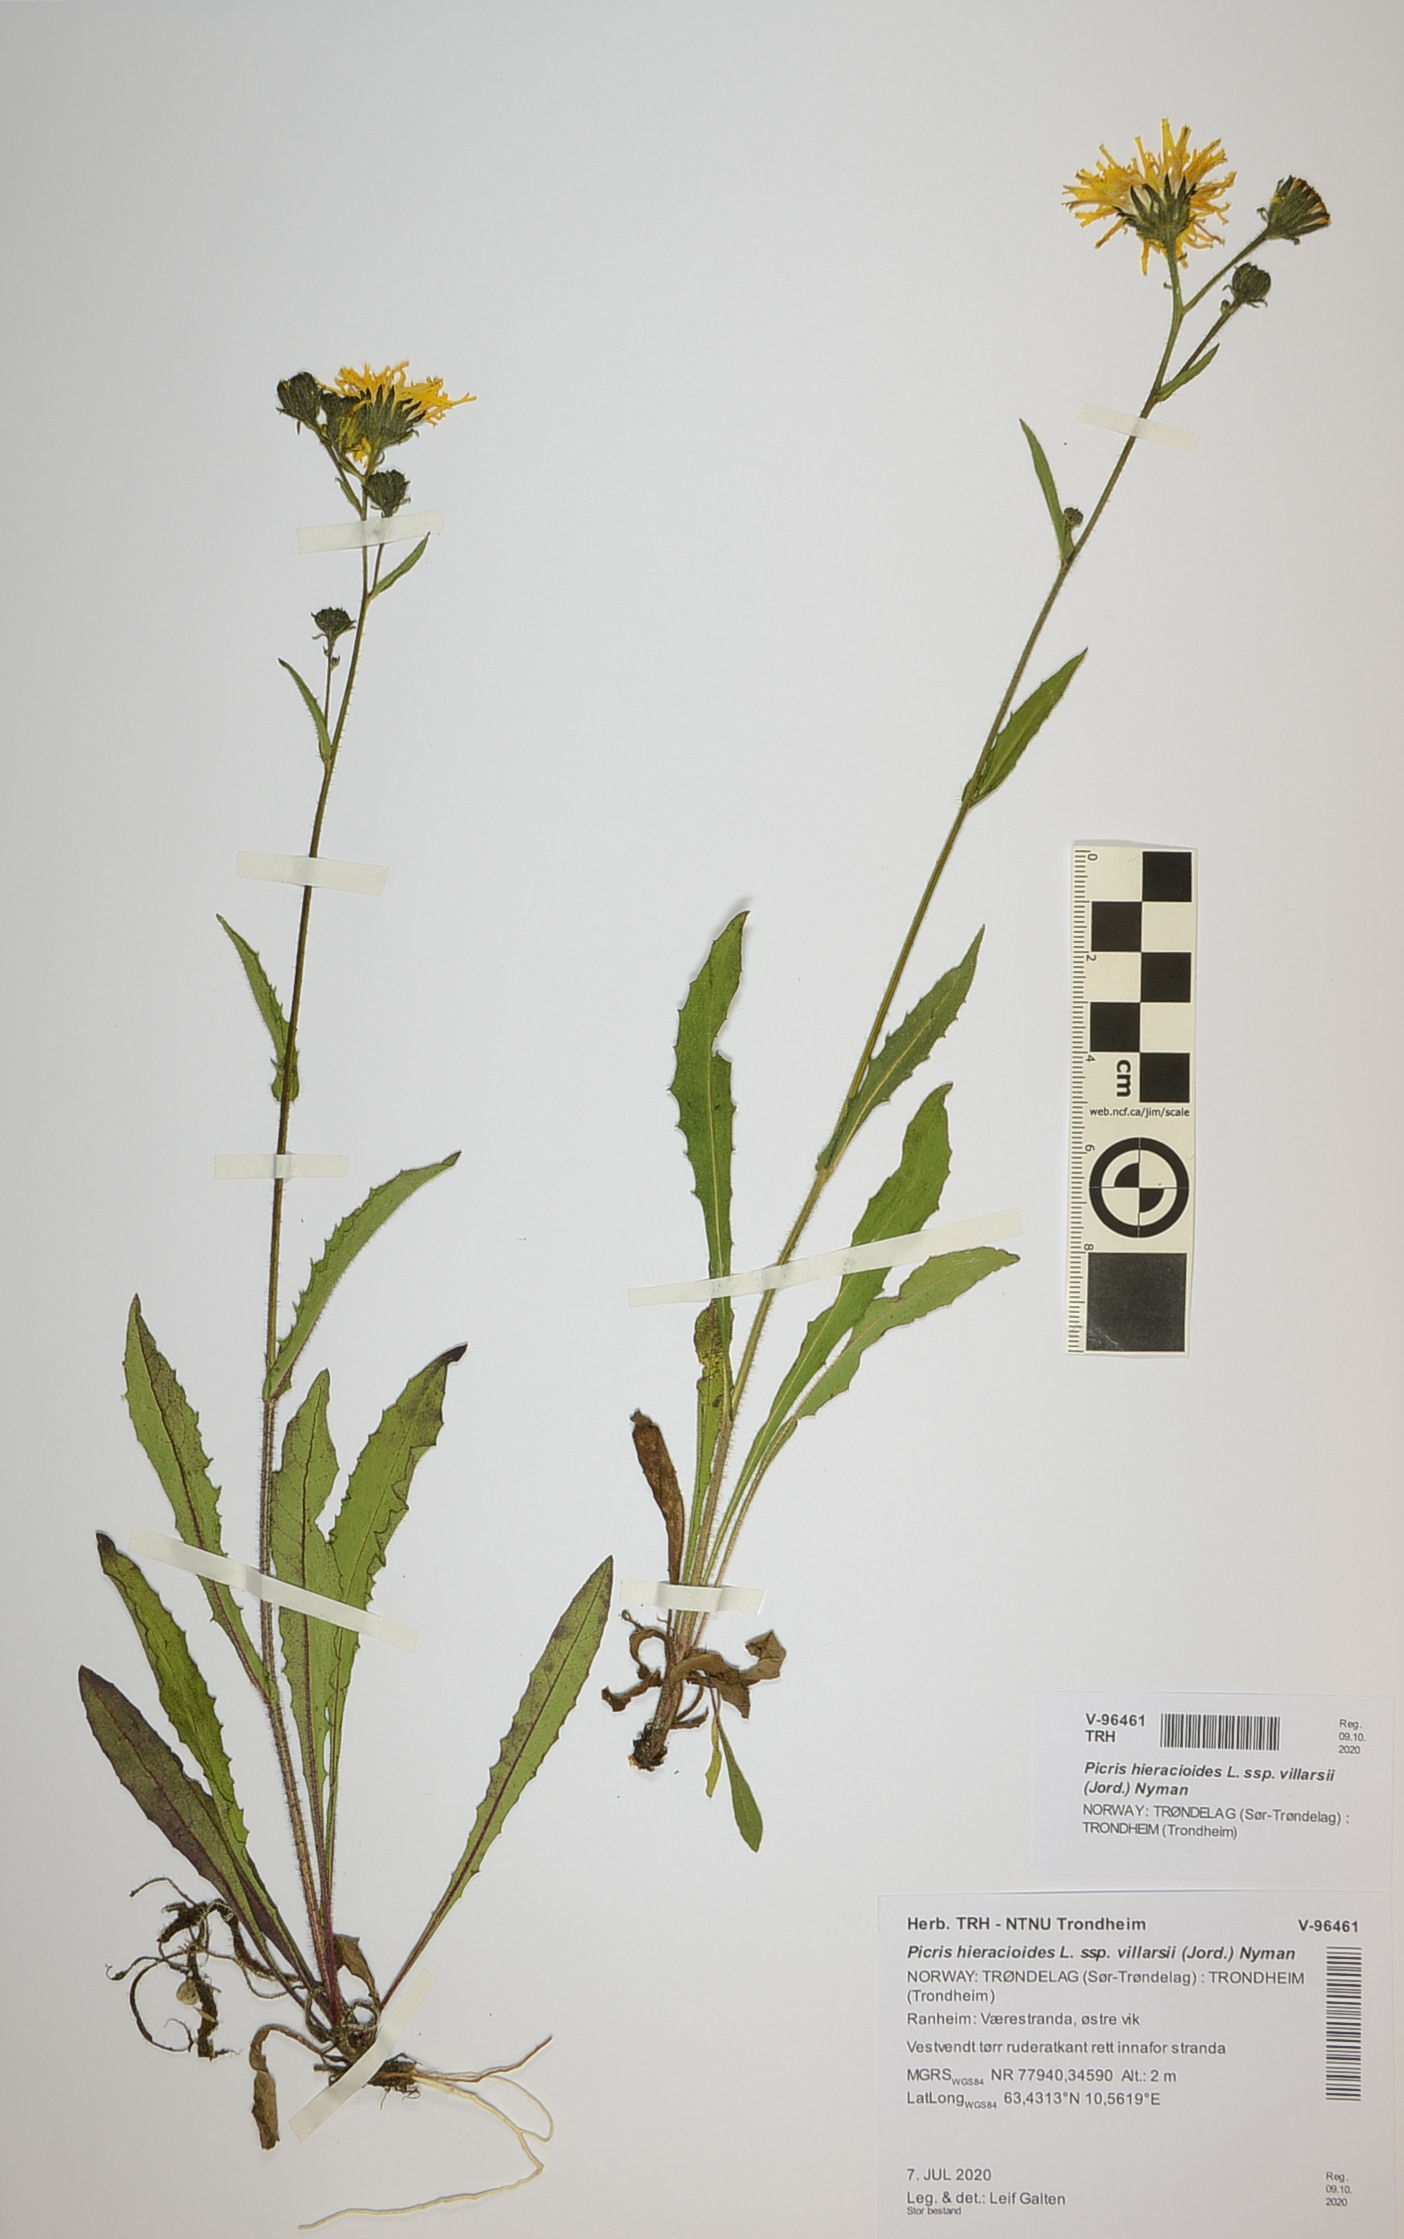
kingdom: Plantae
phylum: Tracheophyta
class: Magnoliopsida
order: Asterales
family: Asteraceae
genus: Picris
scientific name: Picris hieracioides
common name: Hawkweed oxtongue
